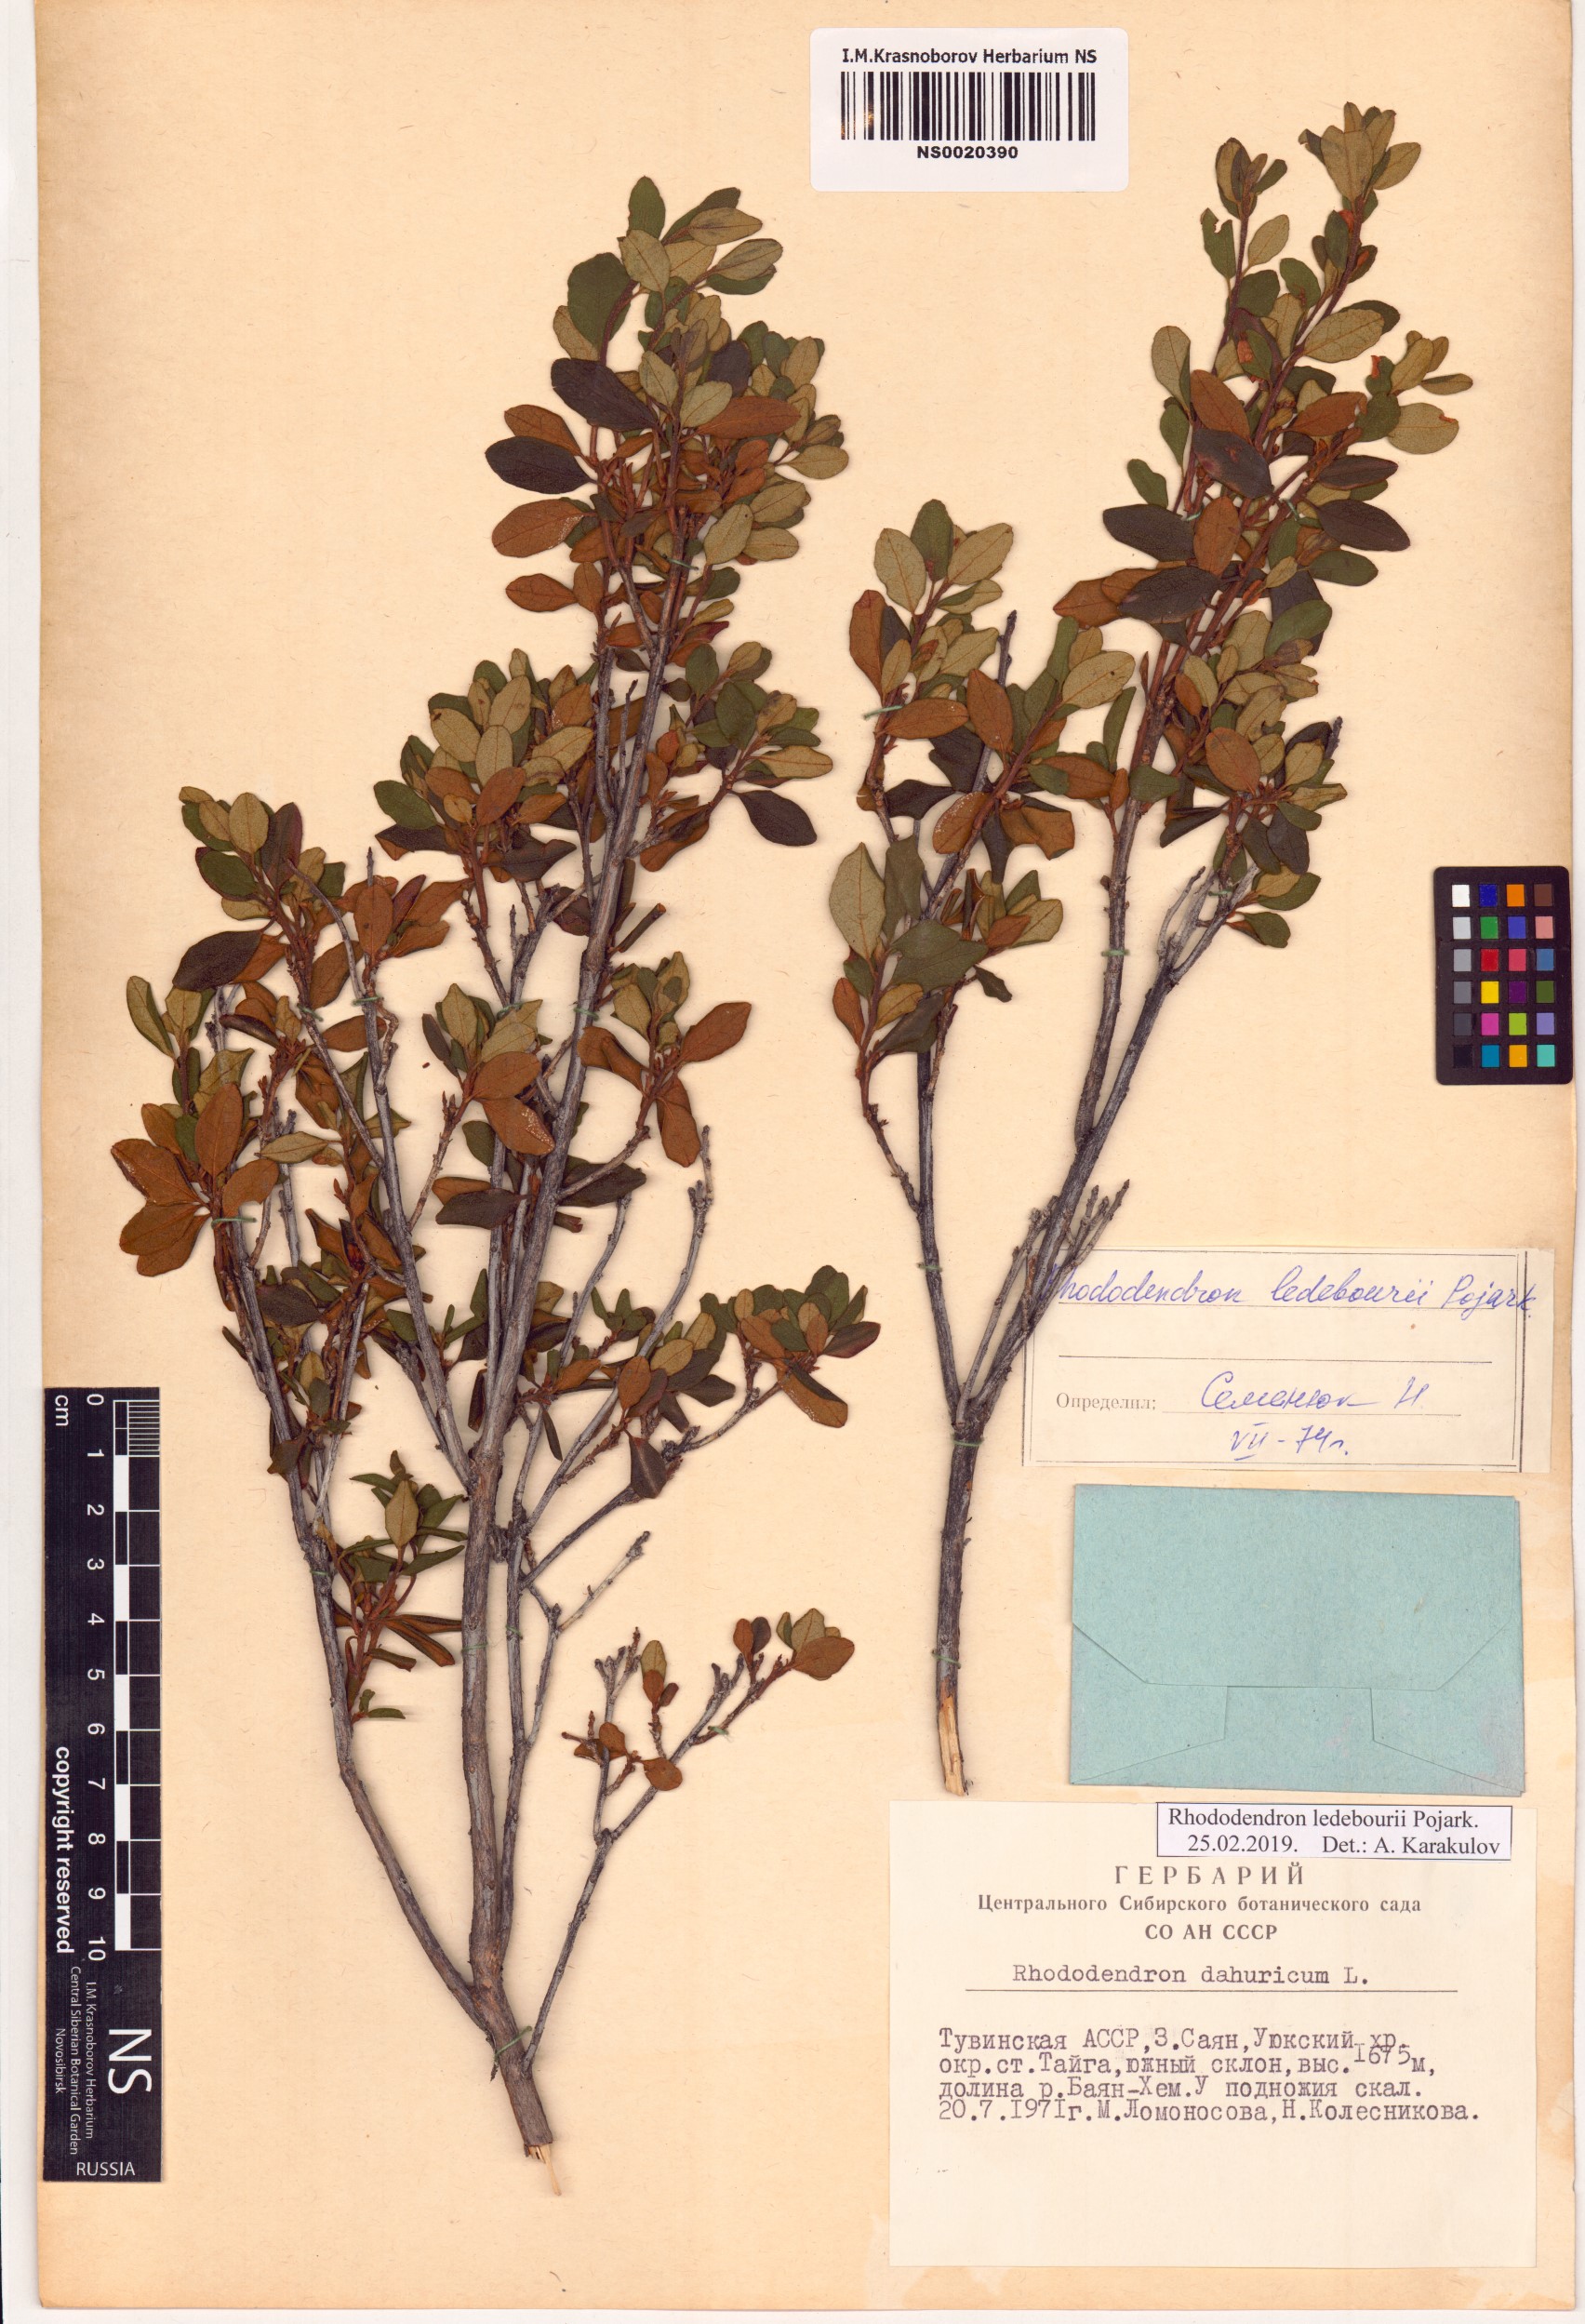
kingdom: Plantae
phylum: Tracheophyta
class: Magnoliopsida
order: Ericales
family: Ericaceae
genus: Rhododendron
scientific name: Rhododendron dauricum
